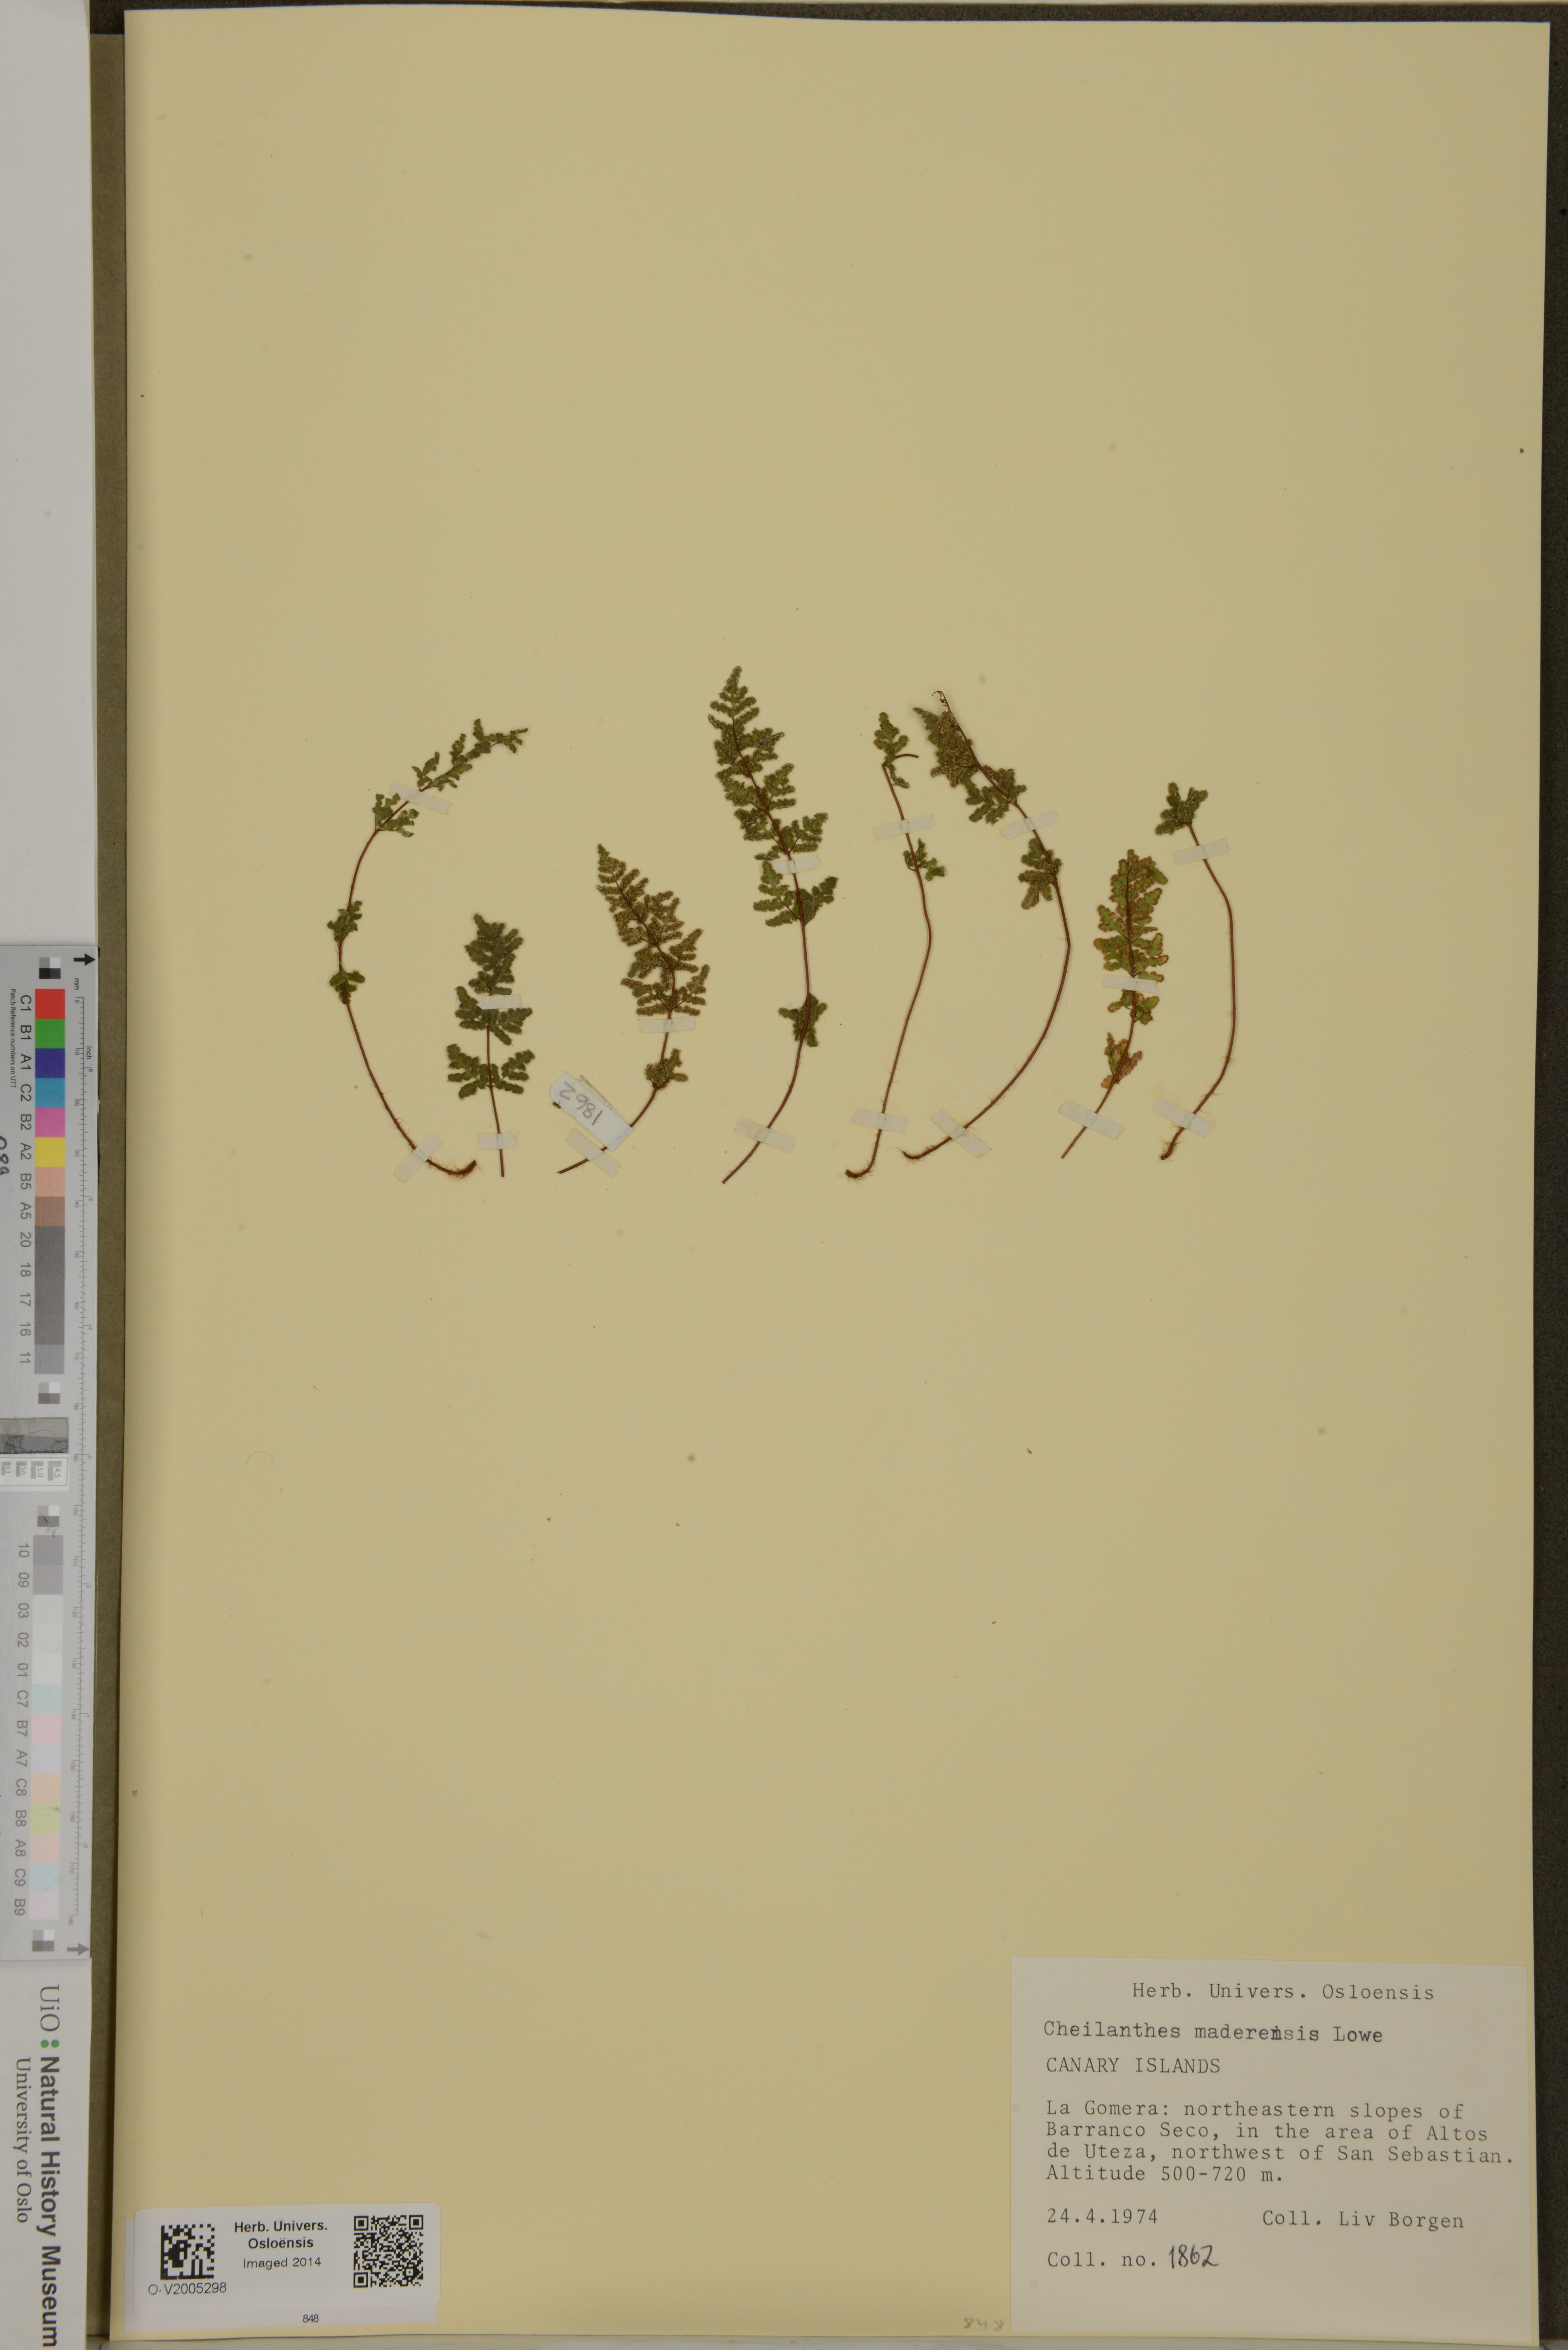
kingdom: Plantae
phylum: Tracheophyta
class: Polypodiopsida
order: Polypodiales
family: Pteridaceae
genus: Oeosporangium
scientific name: Oeosporangium pteridioides
